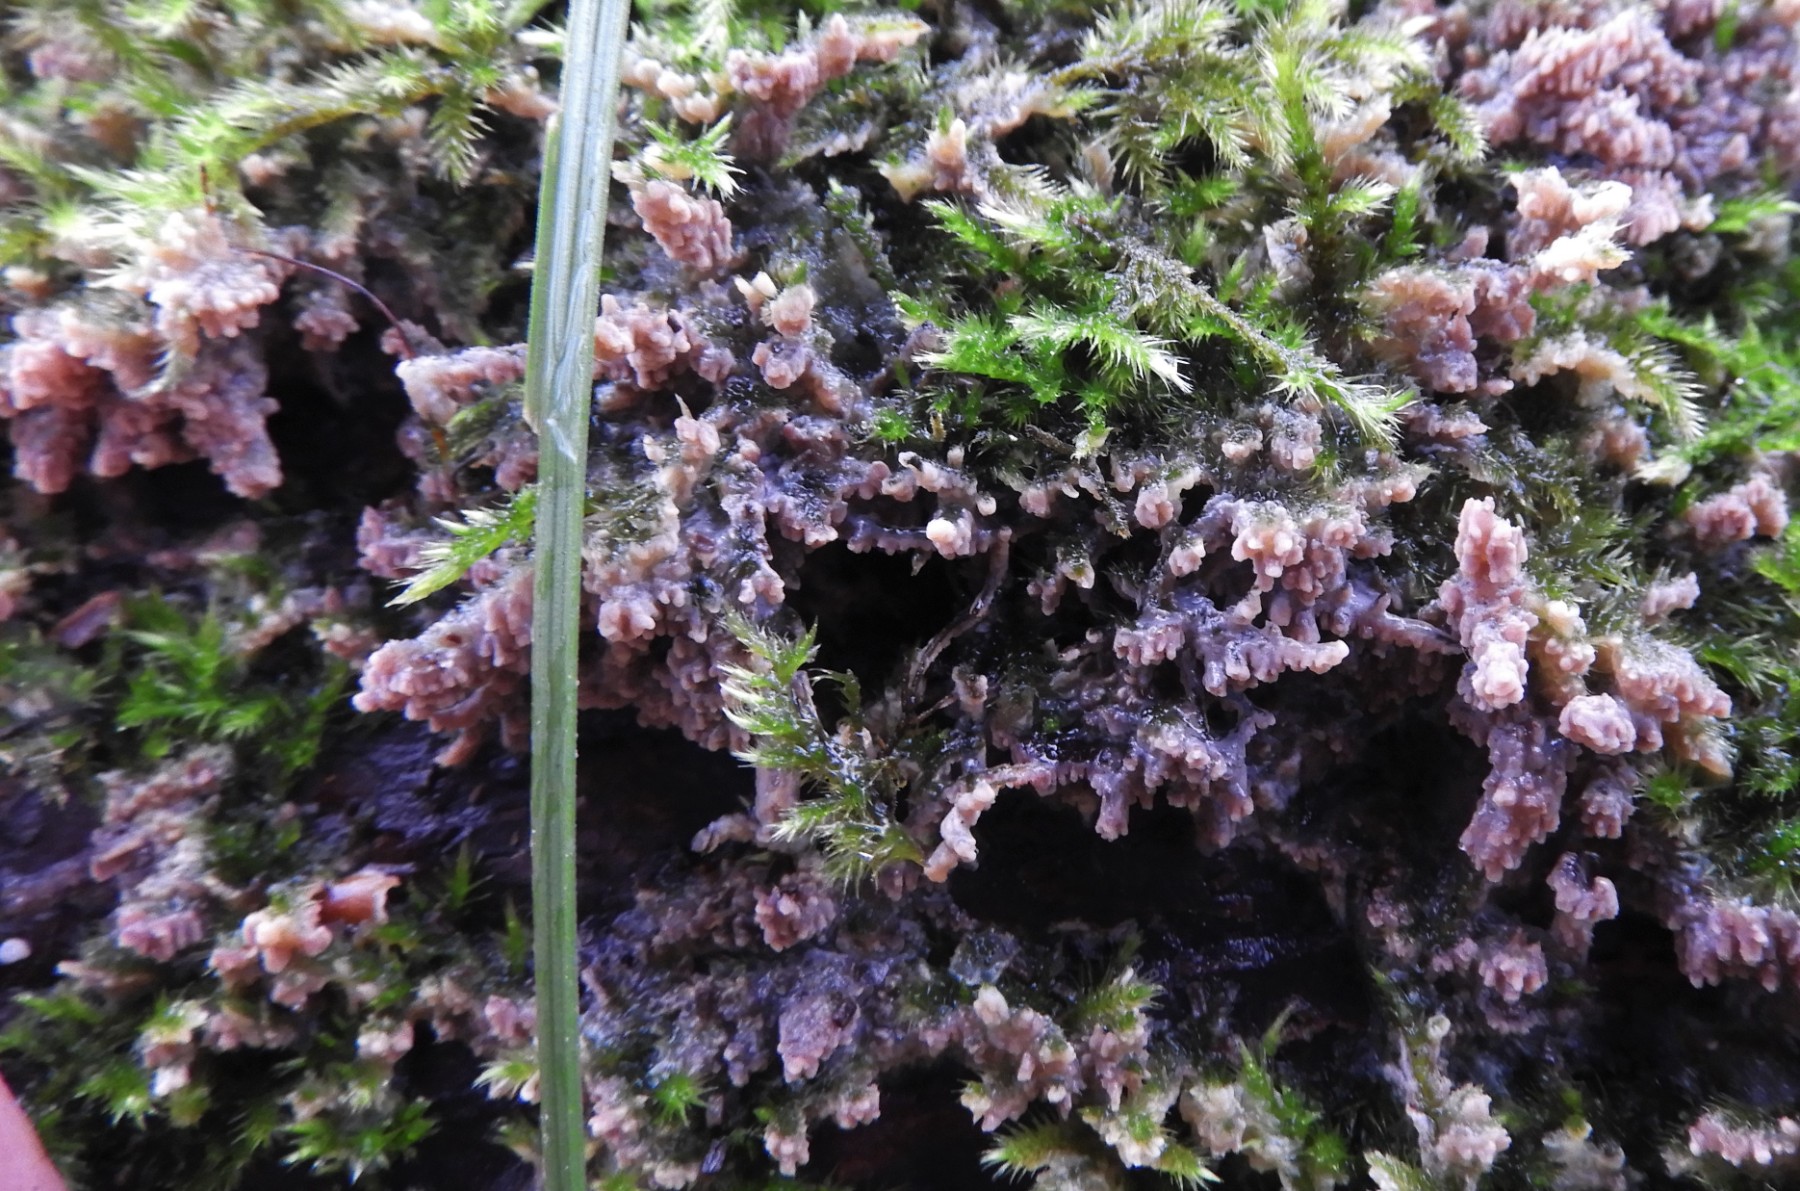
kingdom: Fungi
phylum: Basidiomycota
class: Agaricomycetes
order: Polyporales
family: Meruliaceae
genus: Phlebia
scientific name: Phlebia radiata
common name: stråle-åresvamp
